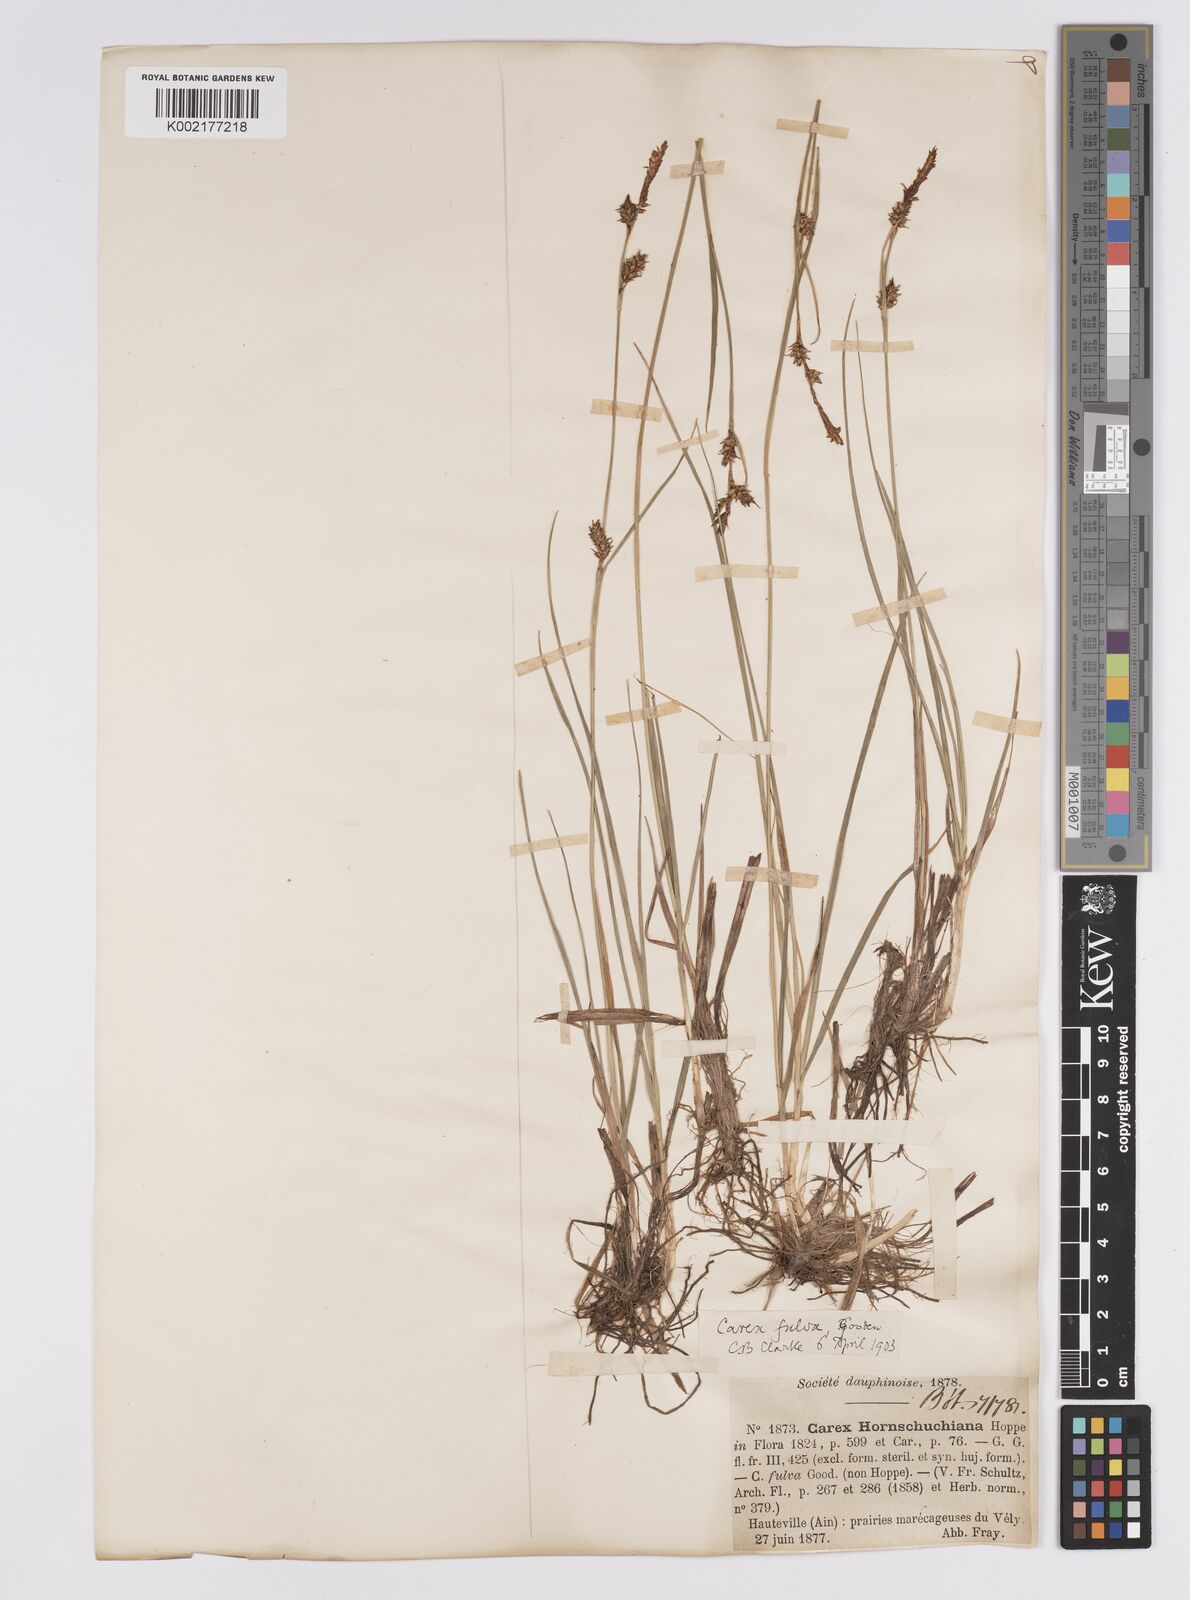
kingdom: Plantae
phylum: Tracheophyta
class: Liliopsida
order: Poales
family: Cyperaceae
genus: Carex
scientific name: Carex hostiana
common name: Tawny sedge
